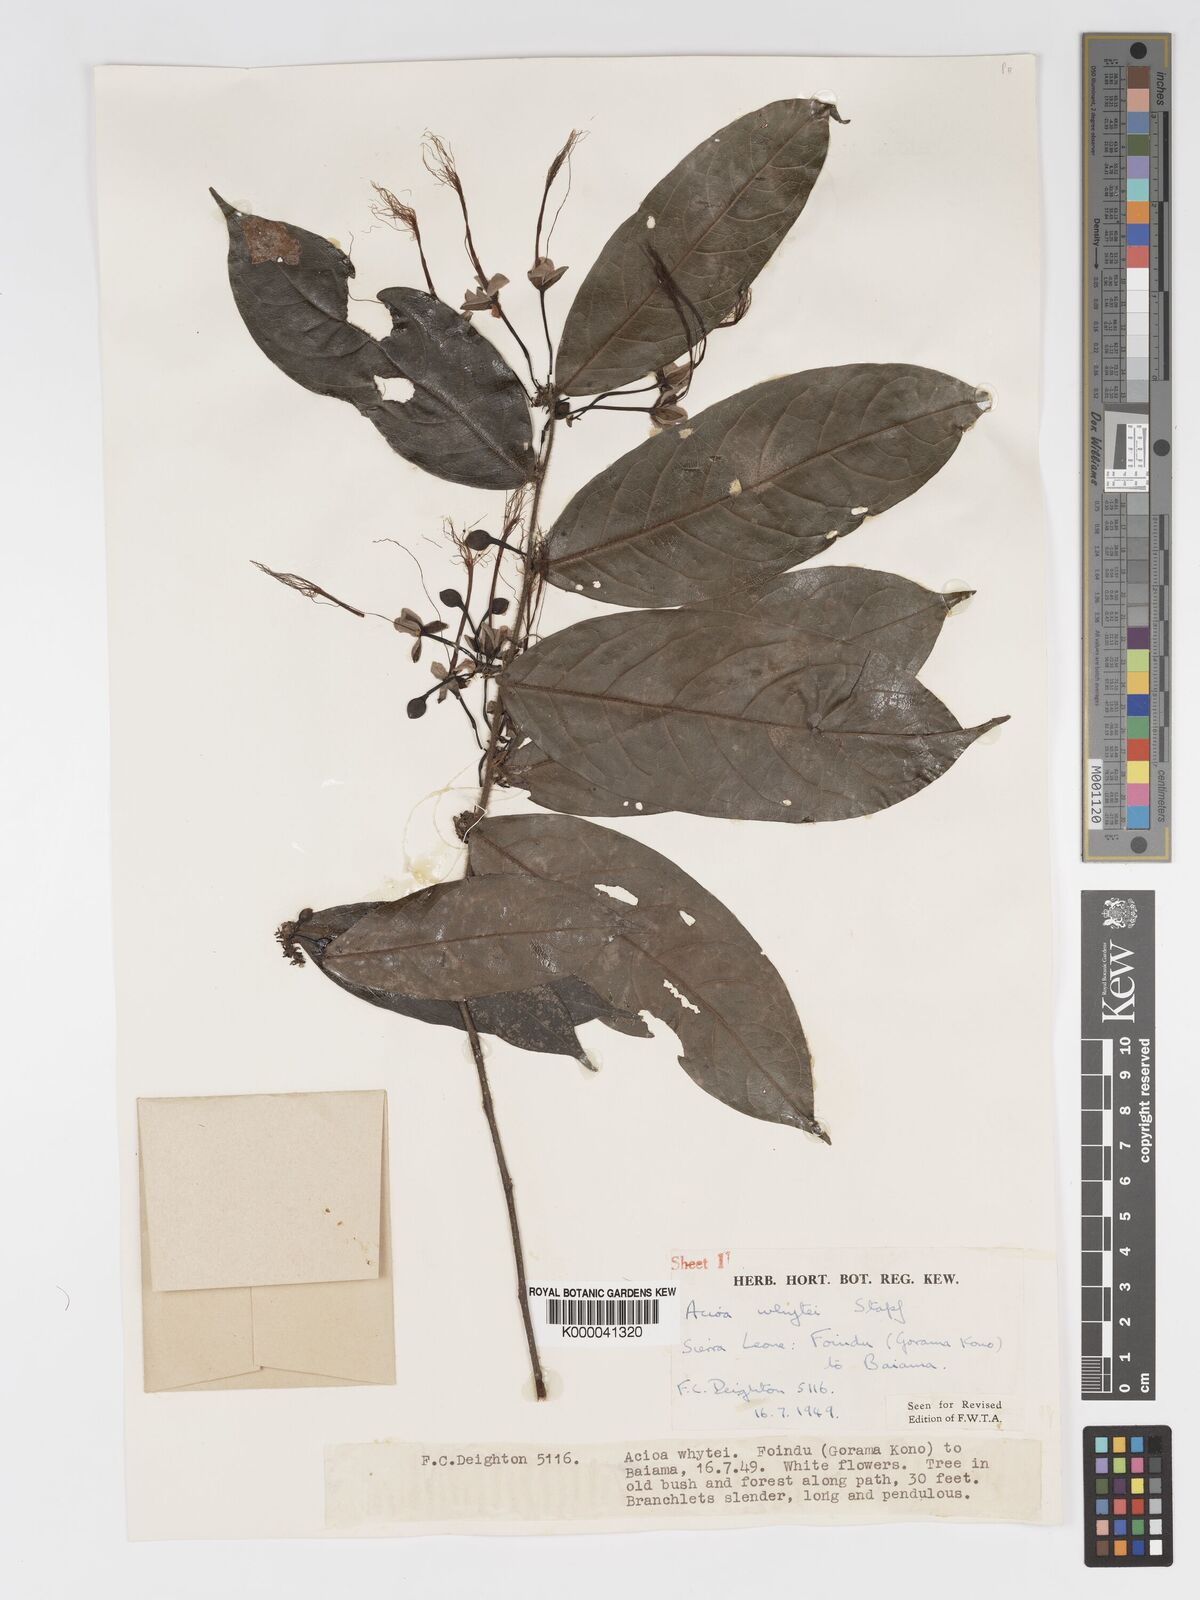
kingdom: Plantae
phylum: Tracheophyta
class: Magnoliopsida
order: Malpighiales
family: Chrysobalanaceae
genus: Dactyladenia
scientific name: Dactyladenia whytei
